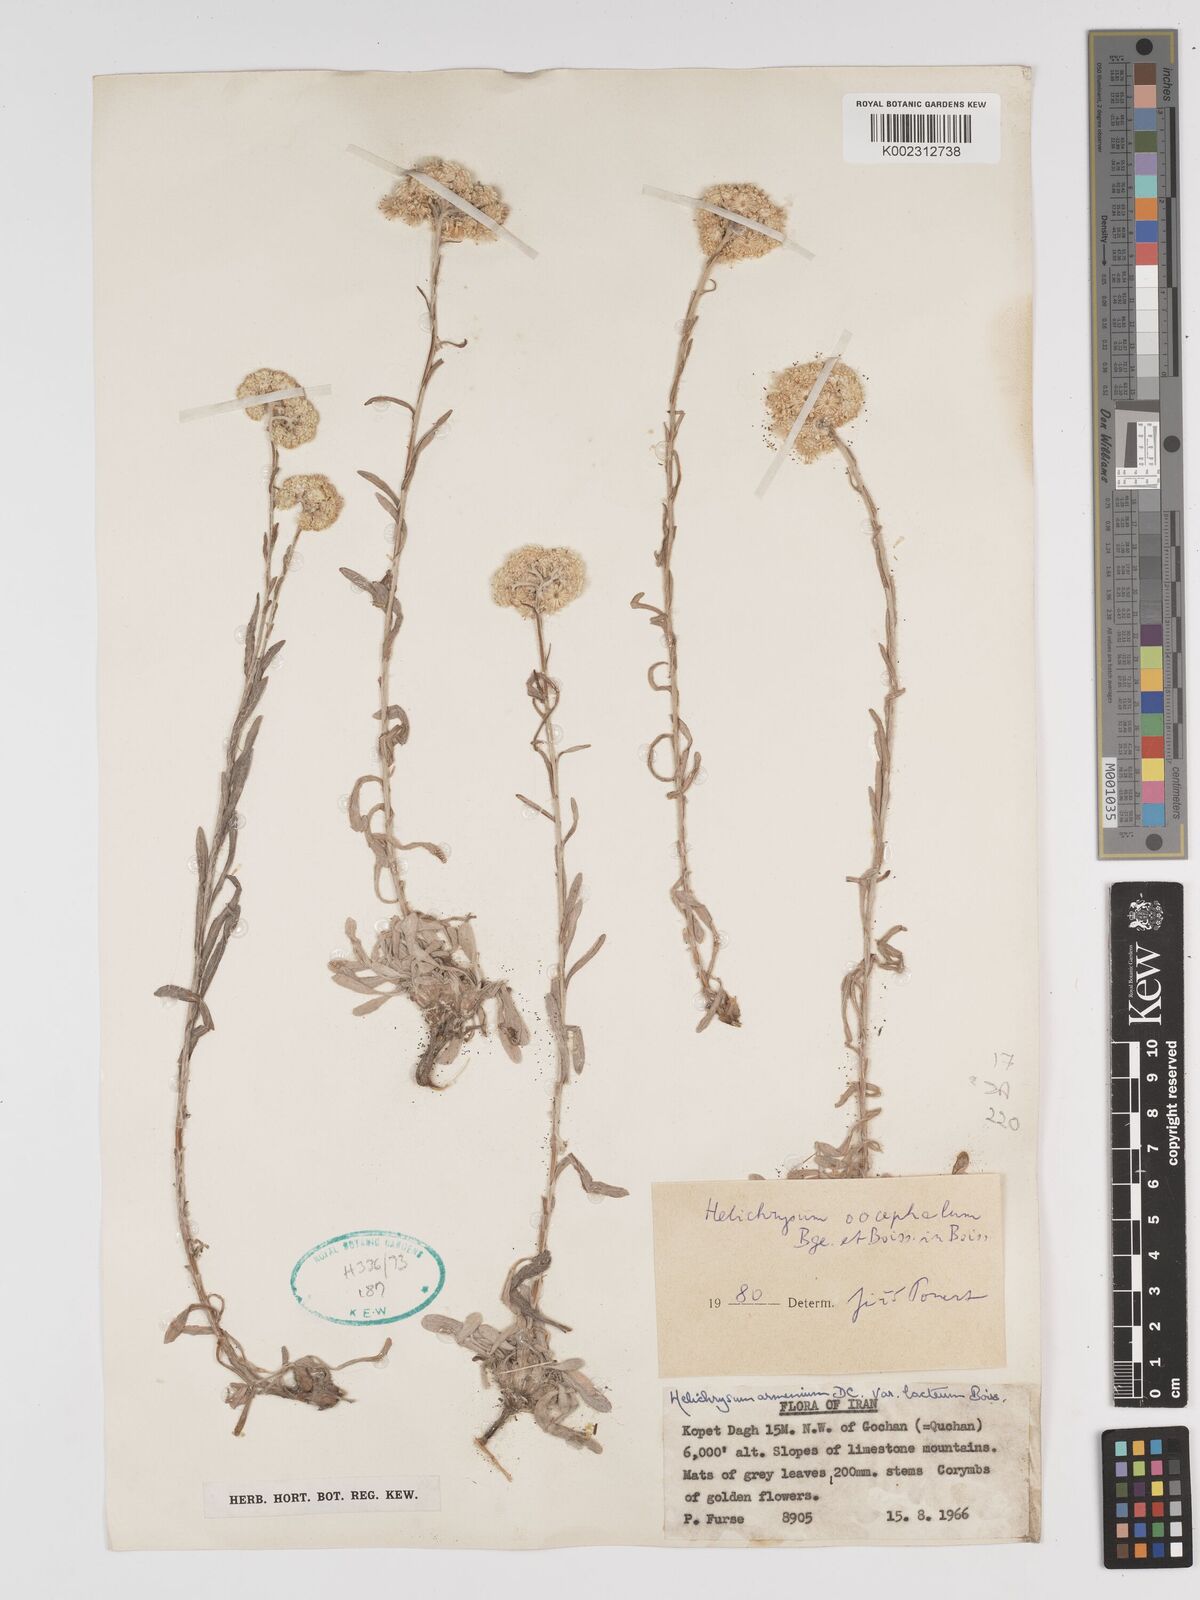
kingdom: Plantae
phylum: Tracheophyta
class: Magnoliopsida
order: Asterales
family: Asteraceae
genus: Helichrysum
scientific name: Helichrysum oocephalum
